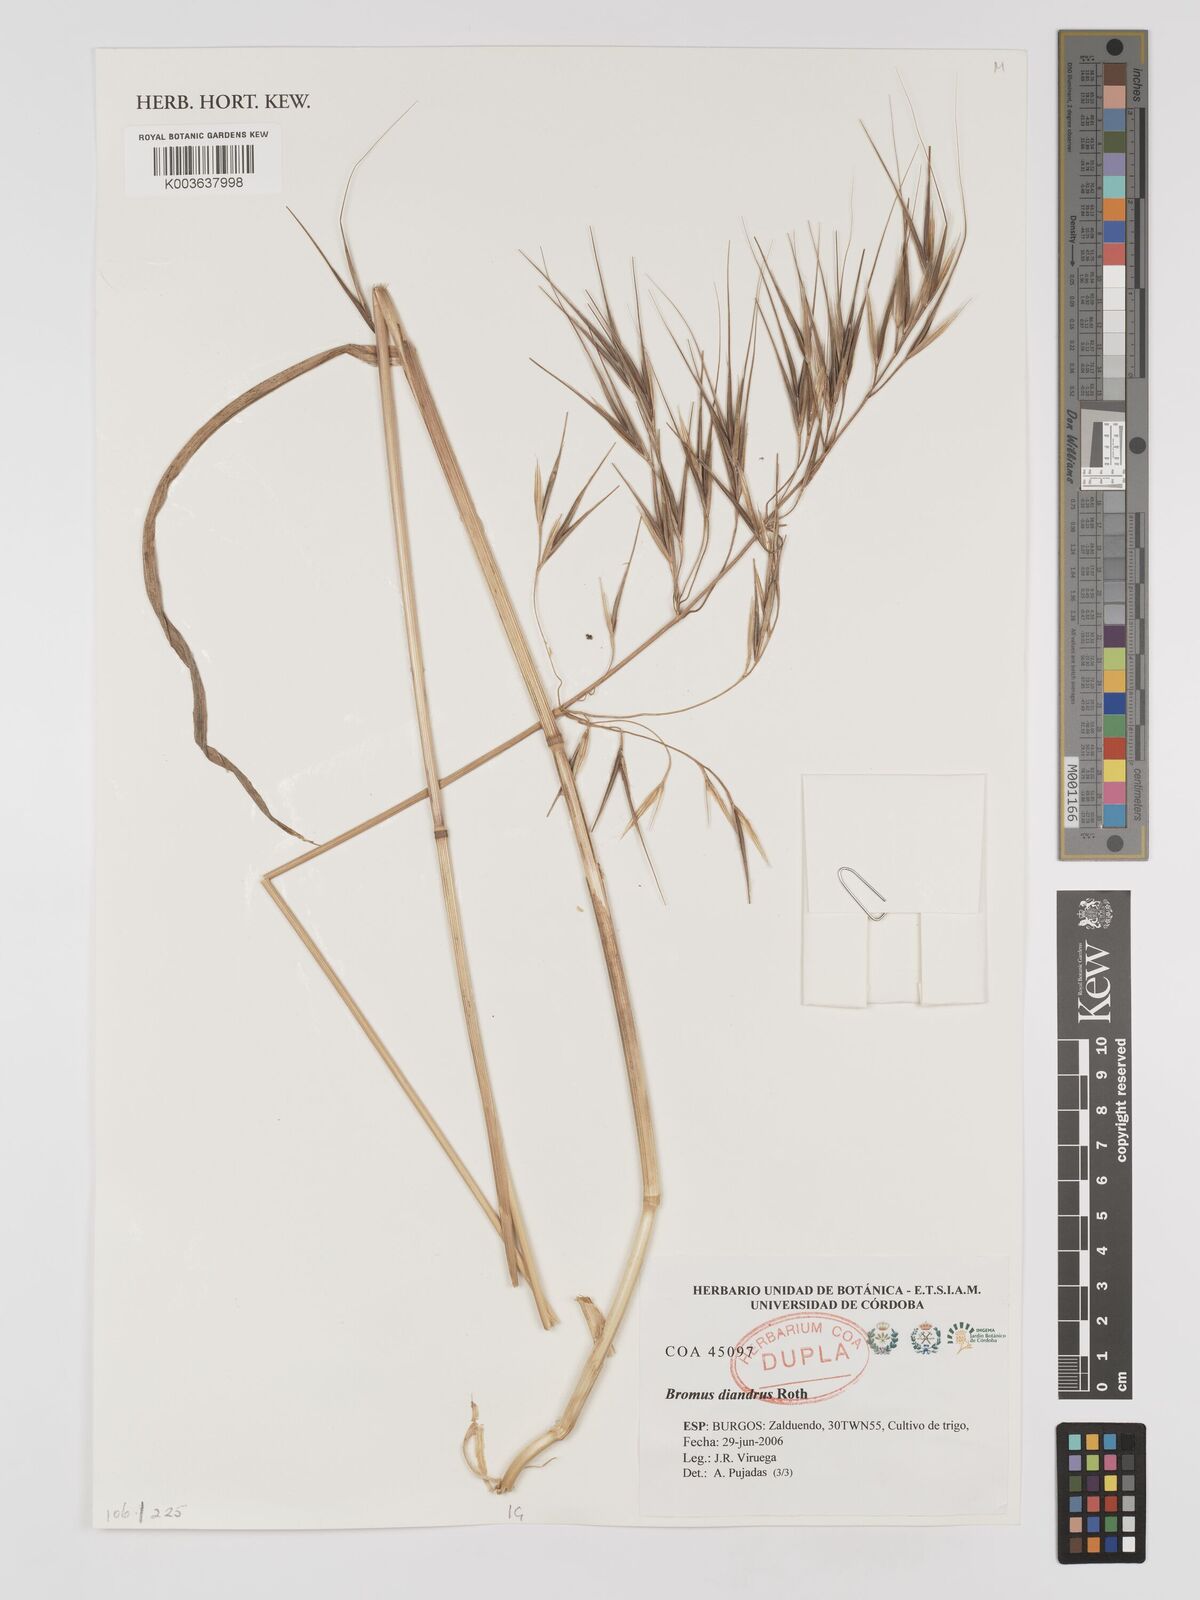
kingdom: Plantae
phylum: Tracheophyta
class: Liliopsida
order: Poales
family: Poaceae
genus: Bromus
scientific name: Bromus
